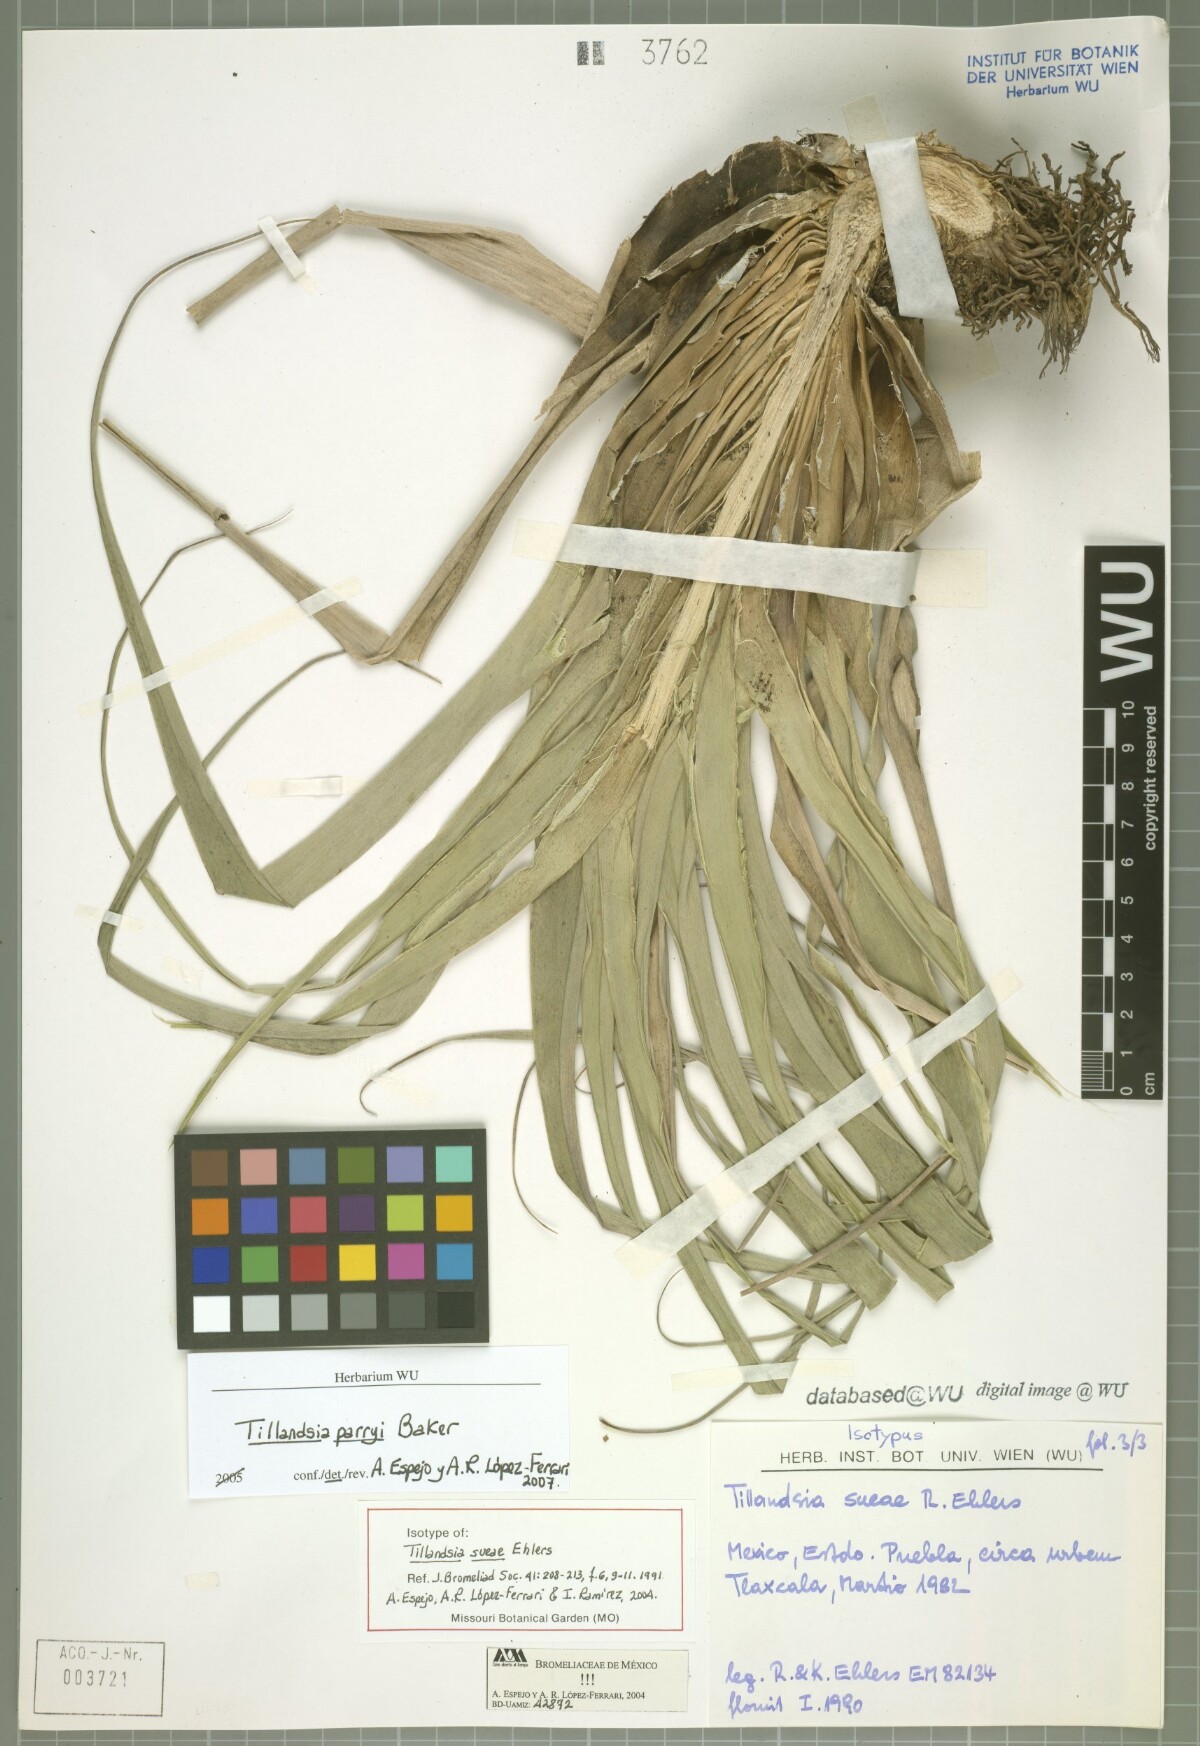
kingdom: Plantae
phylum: Tracheophyta
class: Liliopsida
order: Poales
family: Bromeliaceae
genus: Tillandsia
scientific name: Tillandsia sueae
